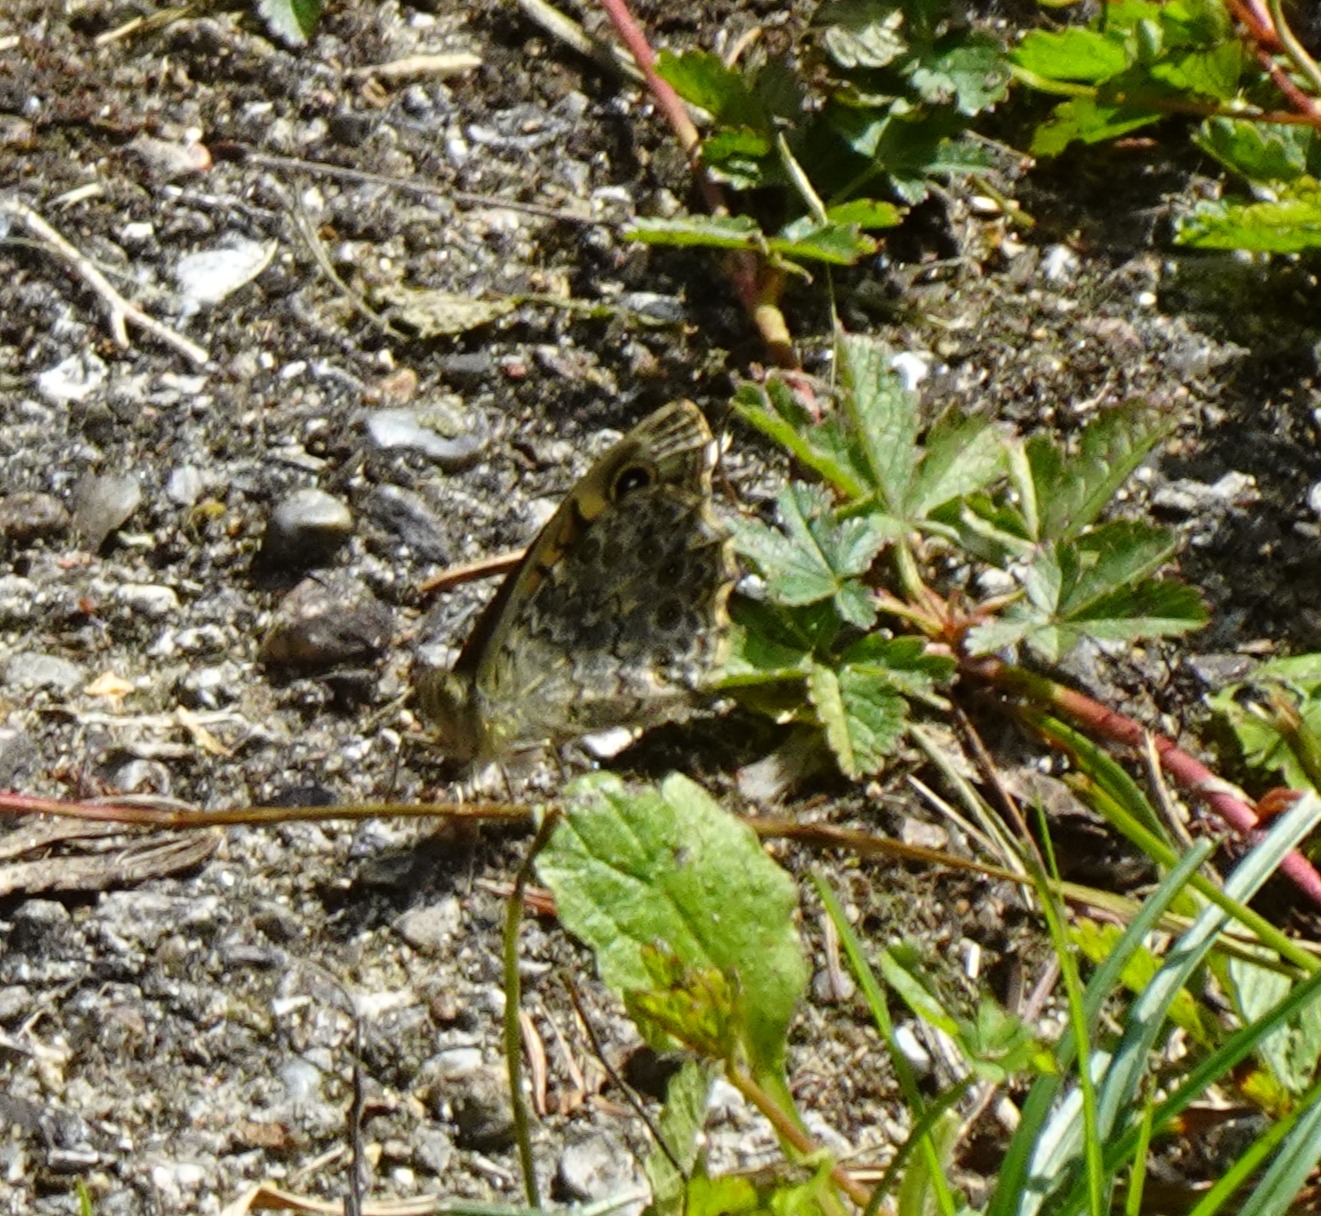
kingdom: Animalia
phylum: Arthropoda
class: Insecta
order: Lepidoptera
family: Nymphalidae
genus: Pararge
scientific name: Pararge Lasiommata megera
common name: Vejrandøje
